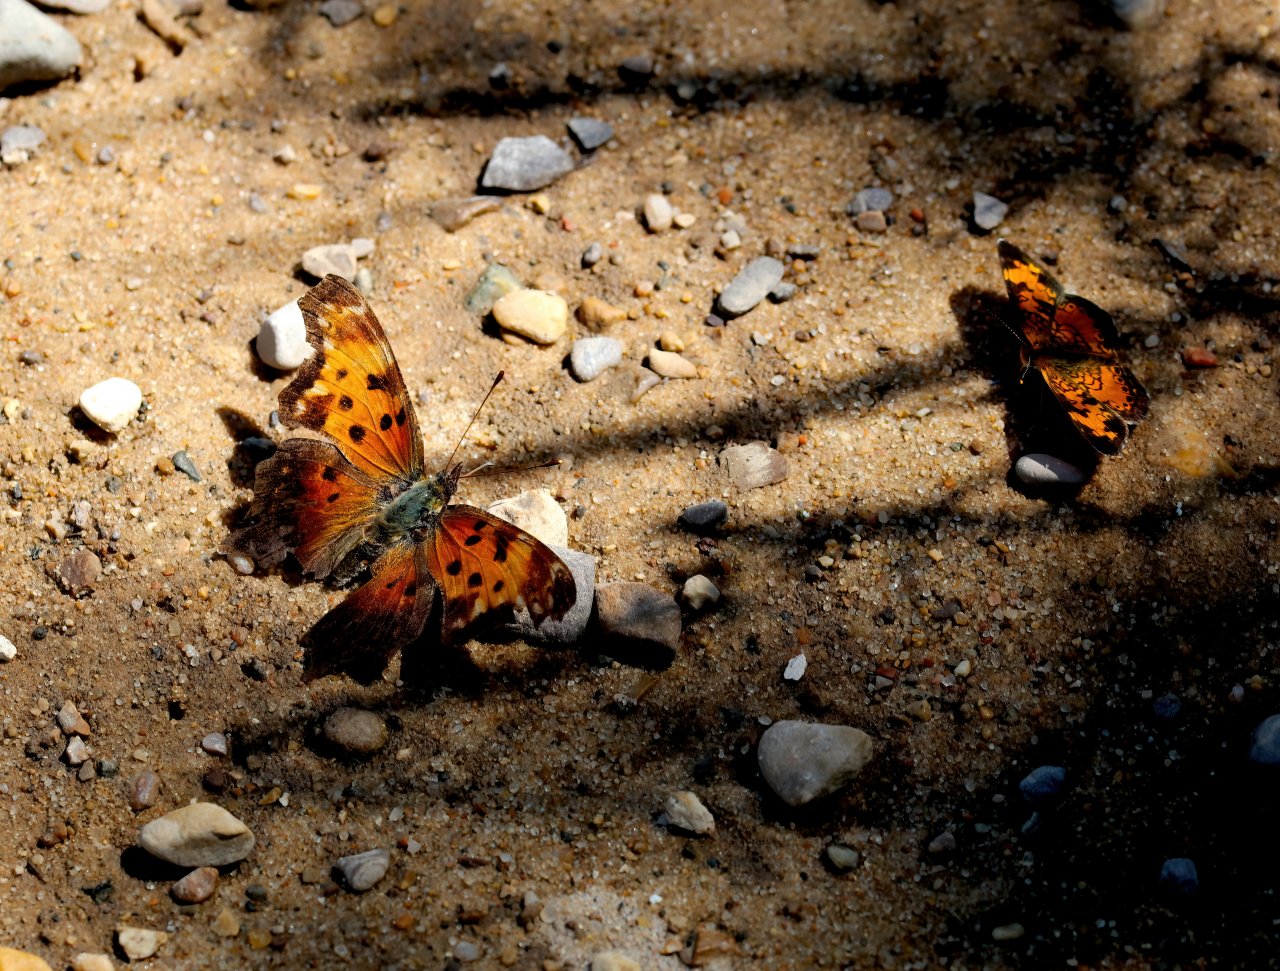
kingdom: Animalia
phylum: Arthropoda
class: Insecta
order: Lepidoptera
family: Nymphalidae
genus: Polygonia
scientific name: Polygonia comma
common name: Eastern Comma
